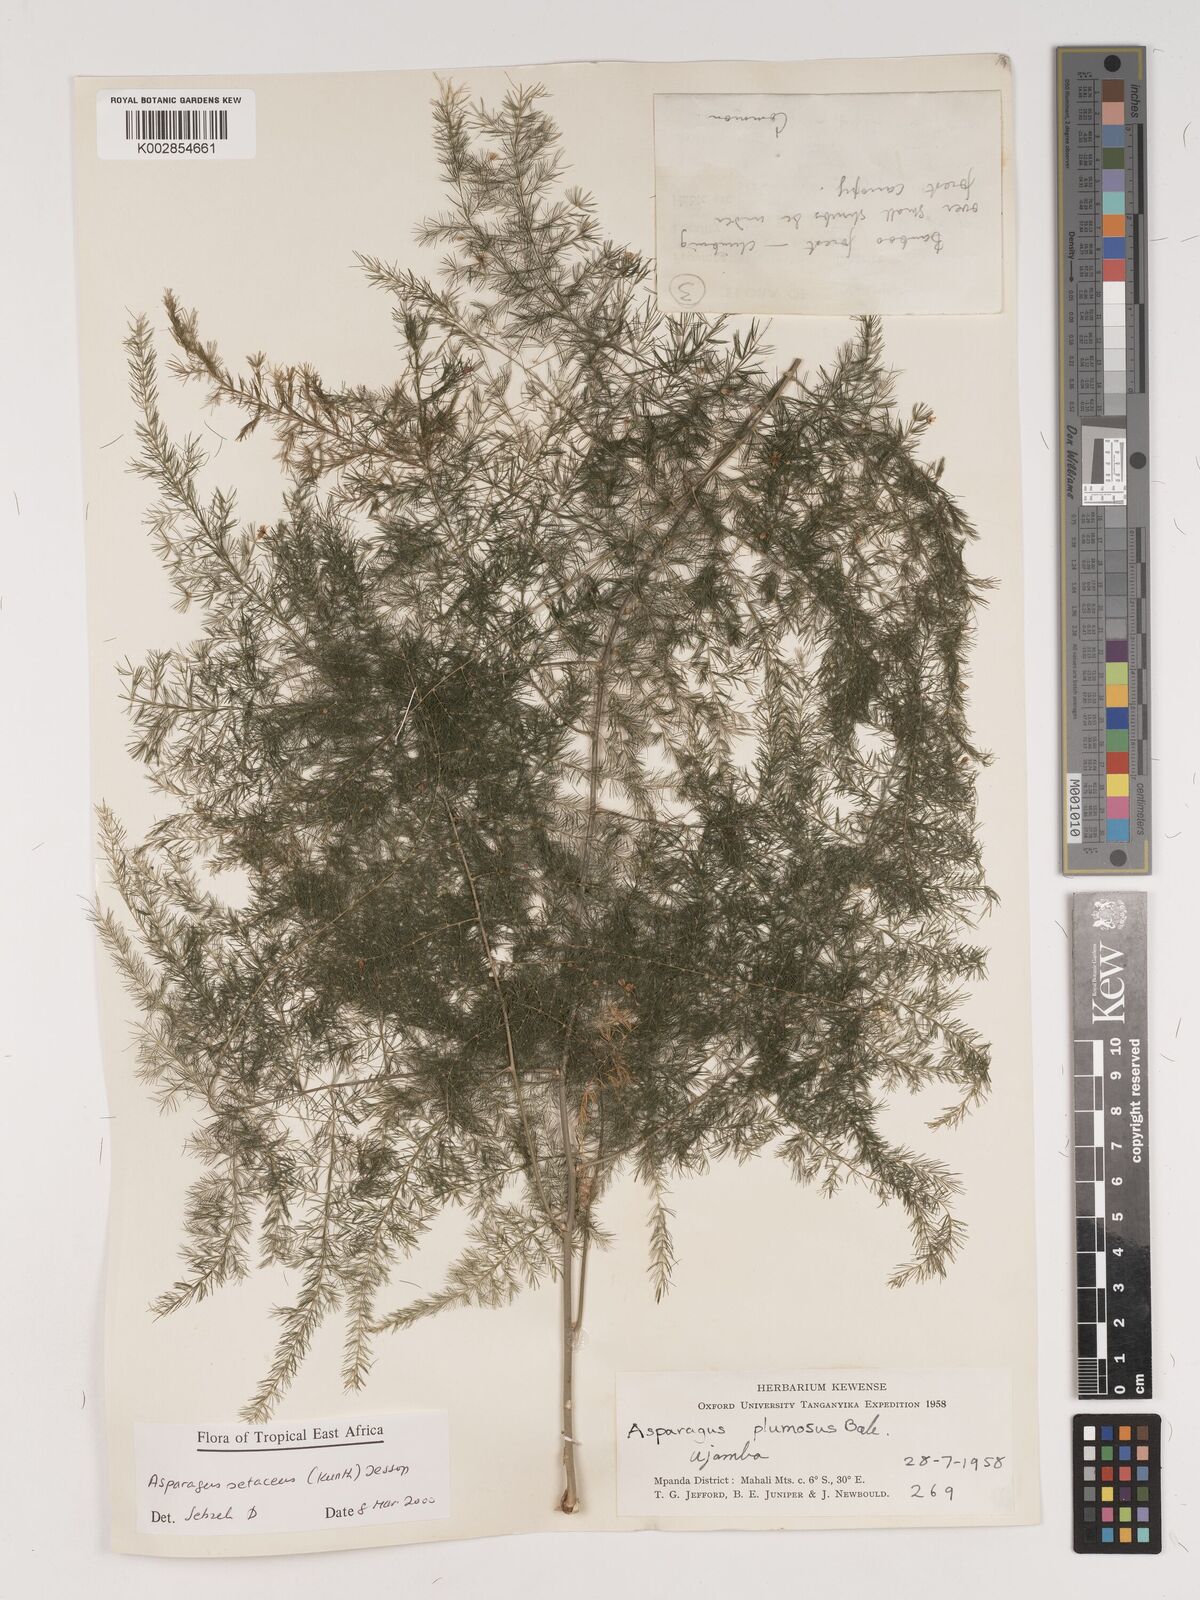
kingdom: Plantae
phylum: Tracheophyta
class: Liliopsida
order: Asparagales
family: Asparagaceae
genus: Asparagus
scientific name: Asparagus setaceus
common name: Common asparagus fern
